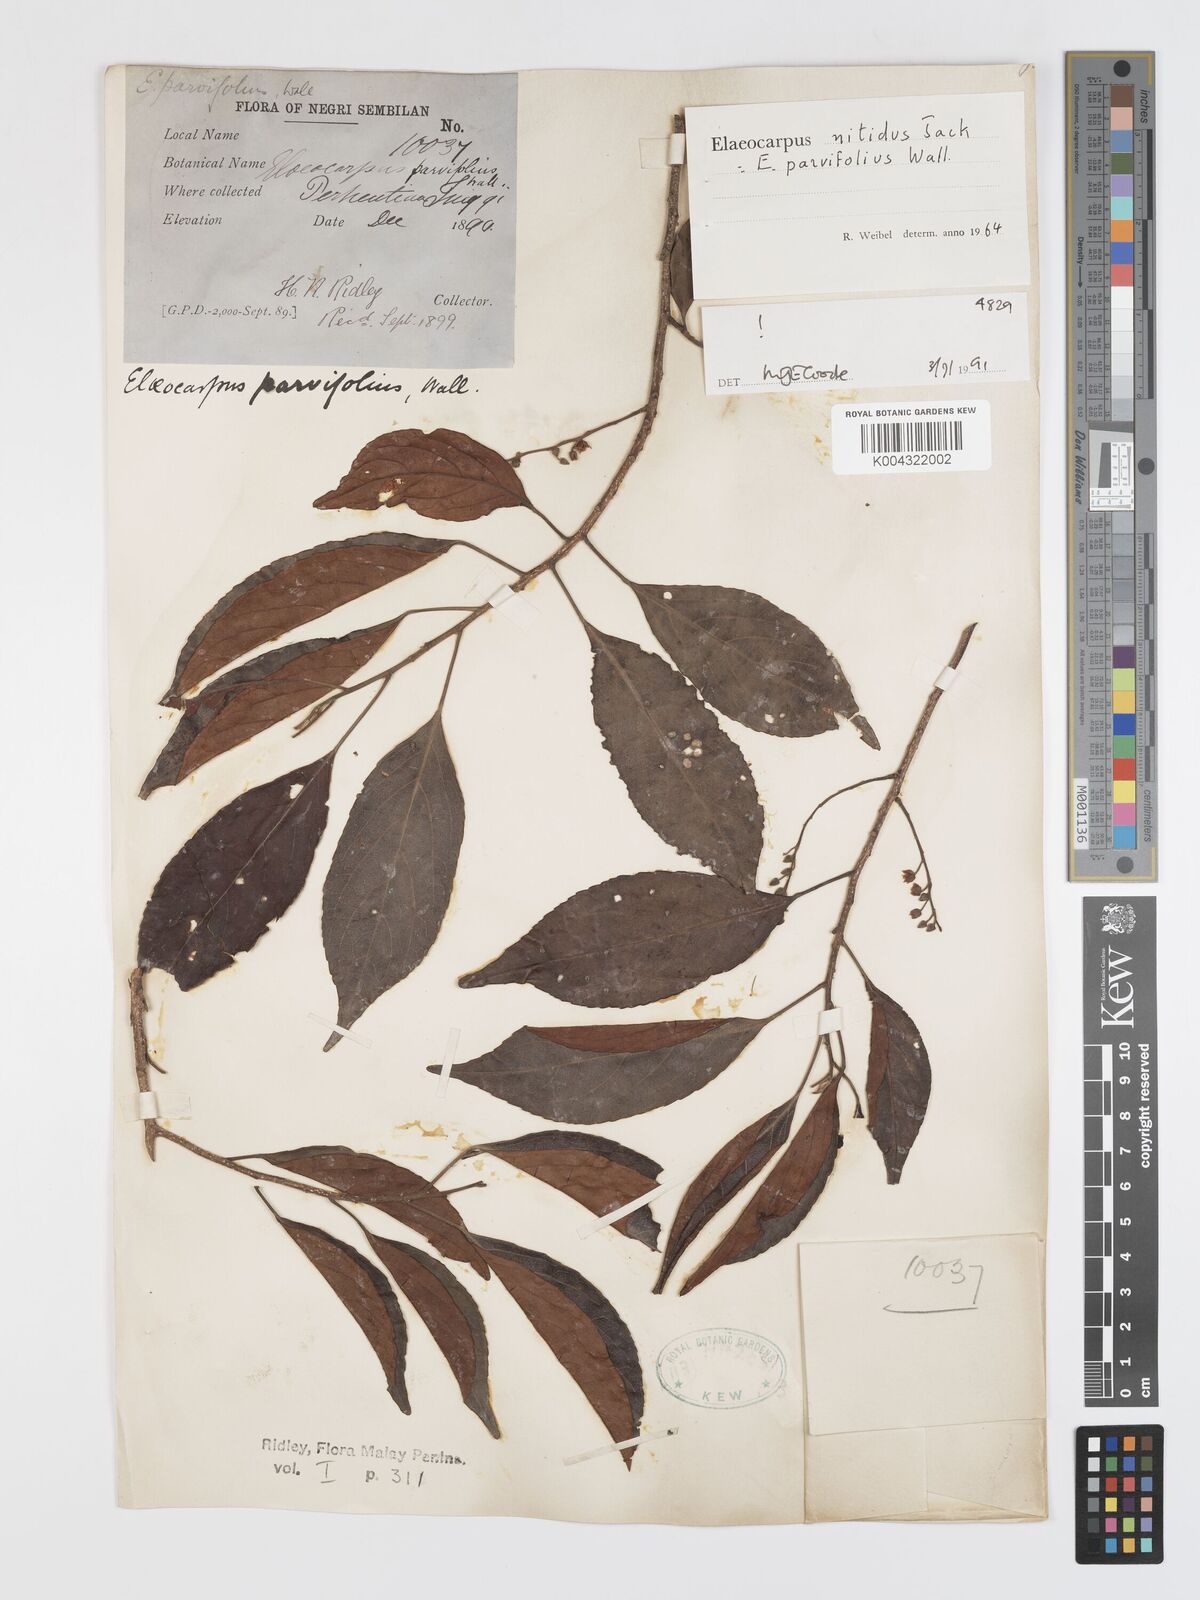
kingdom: Plantae
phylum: Tracheophyta
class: Magnoliopsida
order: Oxalidales
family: Elaeocarpaceae
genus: Elaeocarpus
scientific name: Elaeocarpus nitidus
